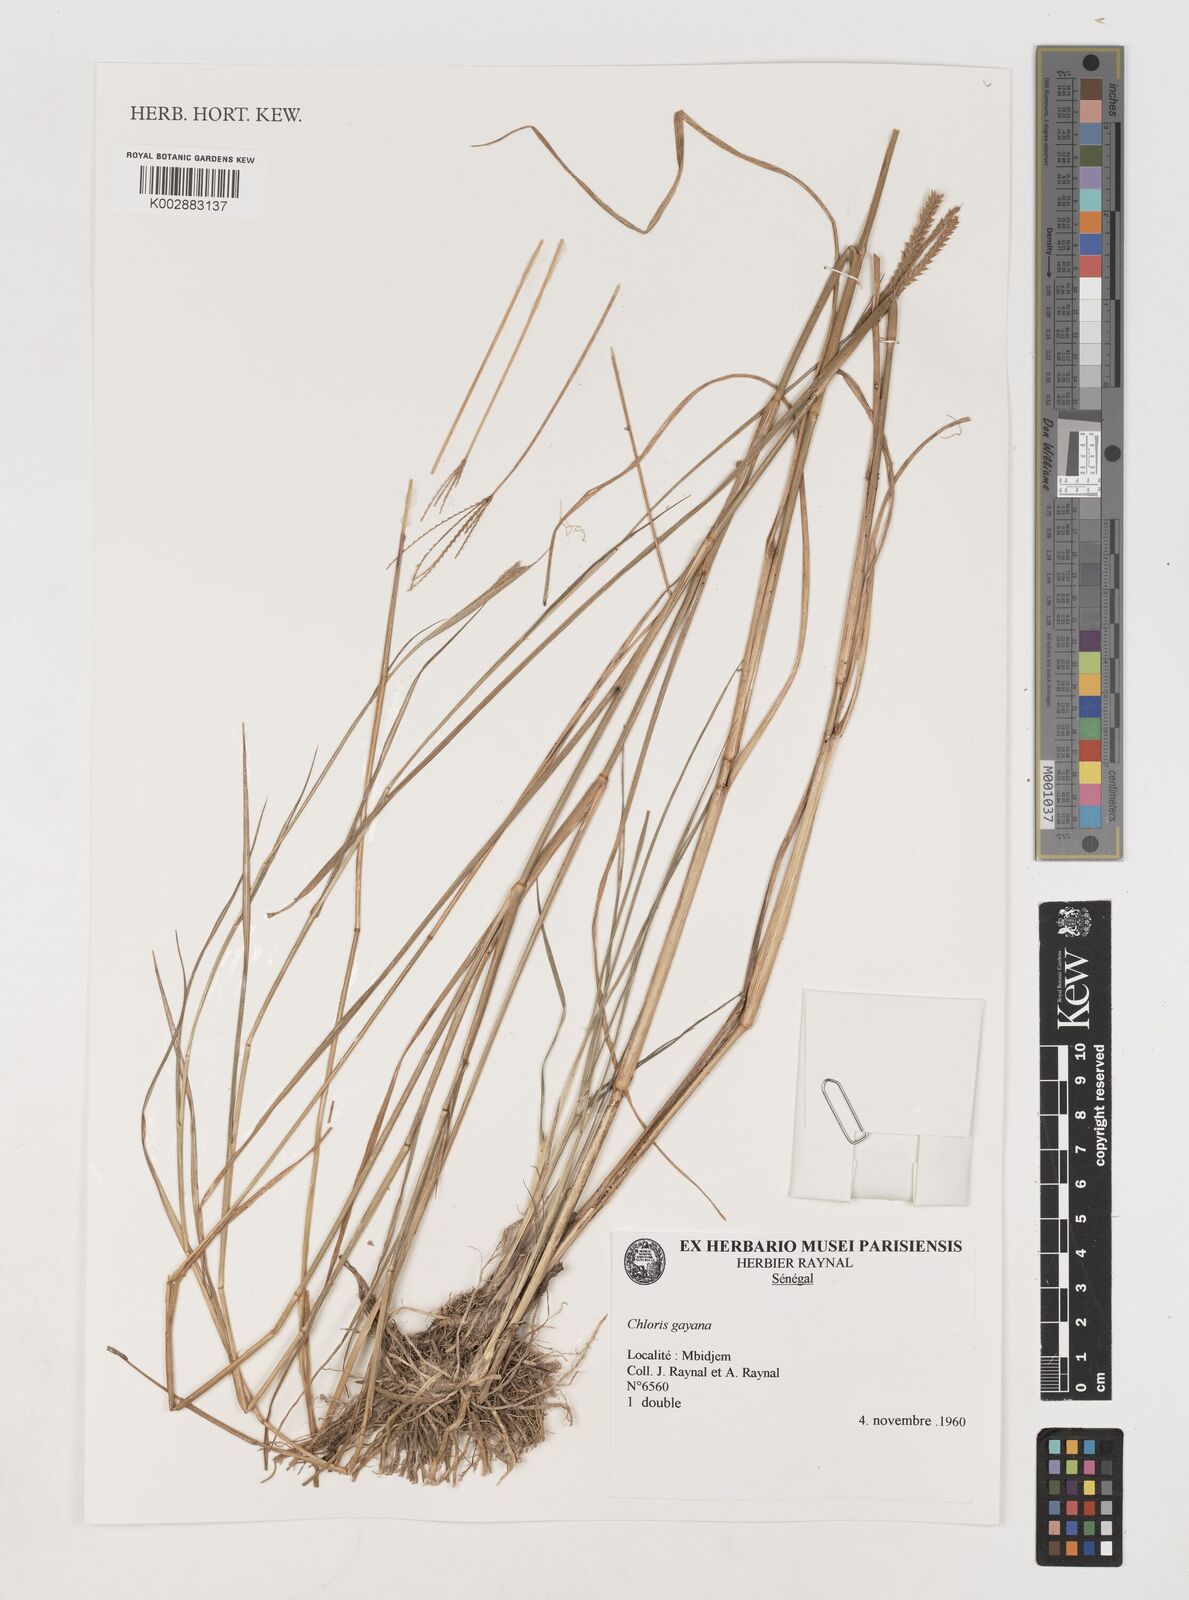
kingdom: Plantae
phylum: Tracheophyta
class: Liliopsida
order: Poales
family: Poaceae
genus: Chloris
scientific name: Chloris gayana
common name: Rhodes grass
